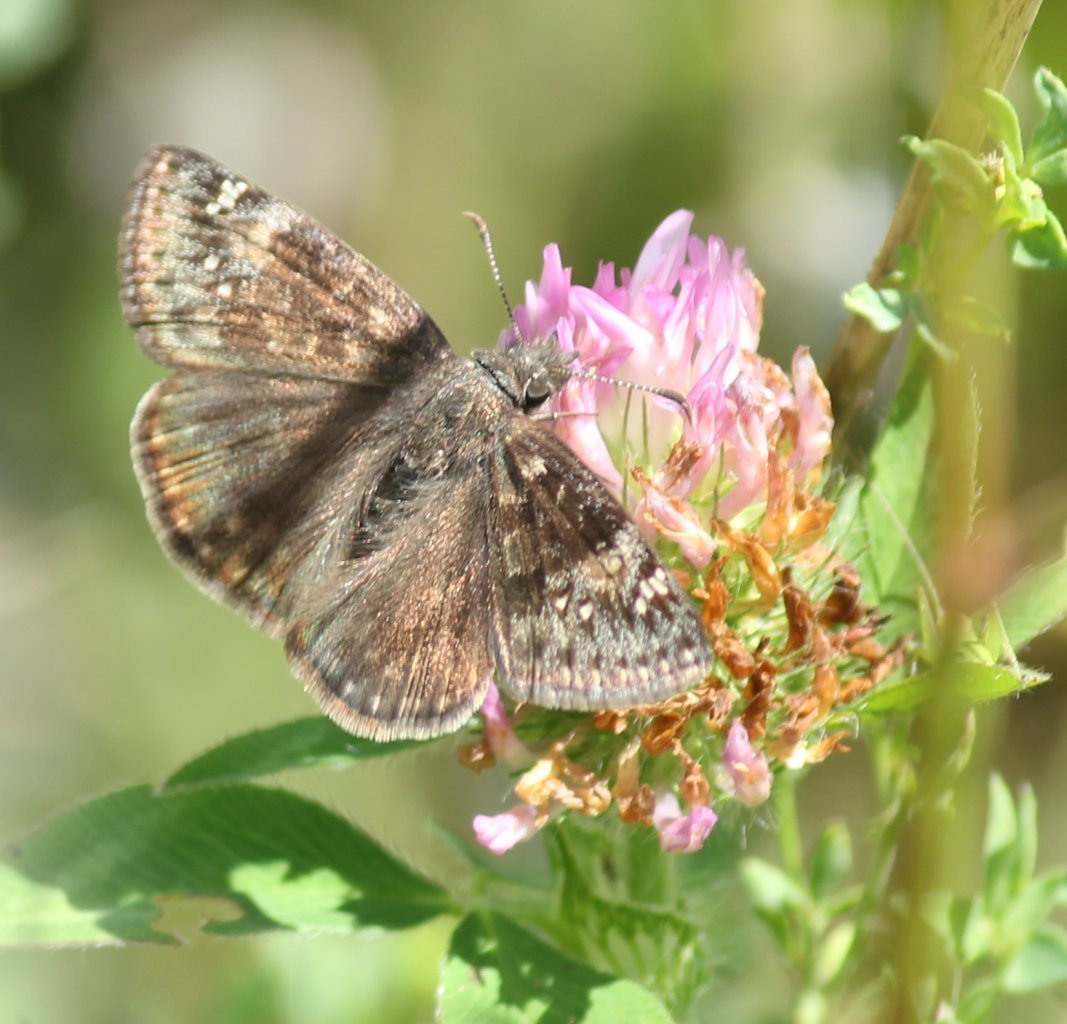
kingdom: Animalia
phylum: Arthropoda
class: Insecta
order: Lepidoptera
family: Hesperiidae
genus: Gesta
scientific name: Gesta
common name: Wild Indigo Duskywing
